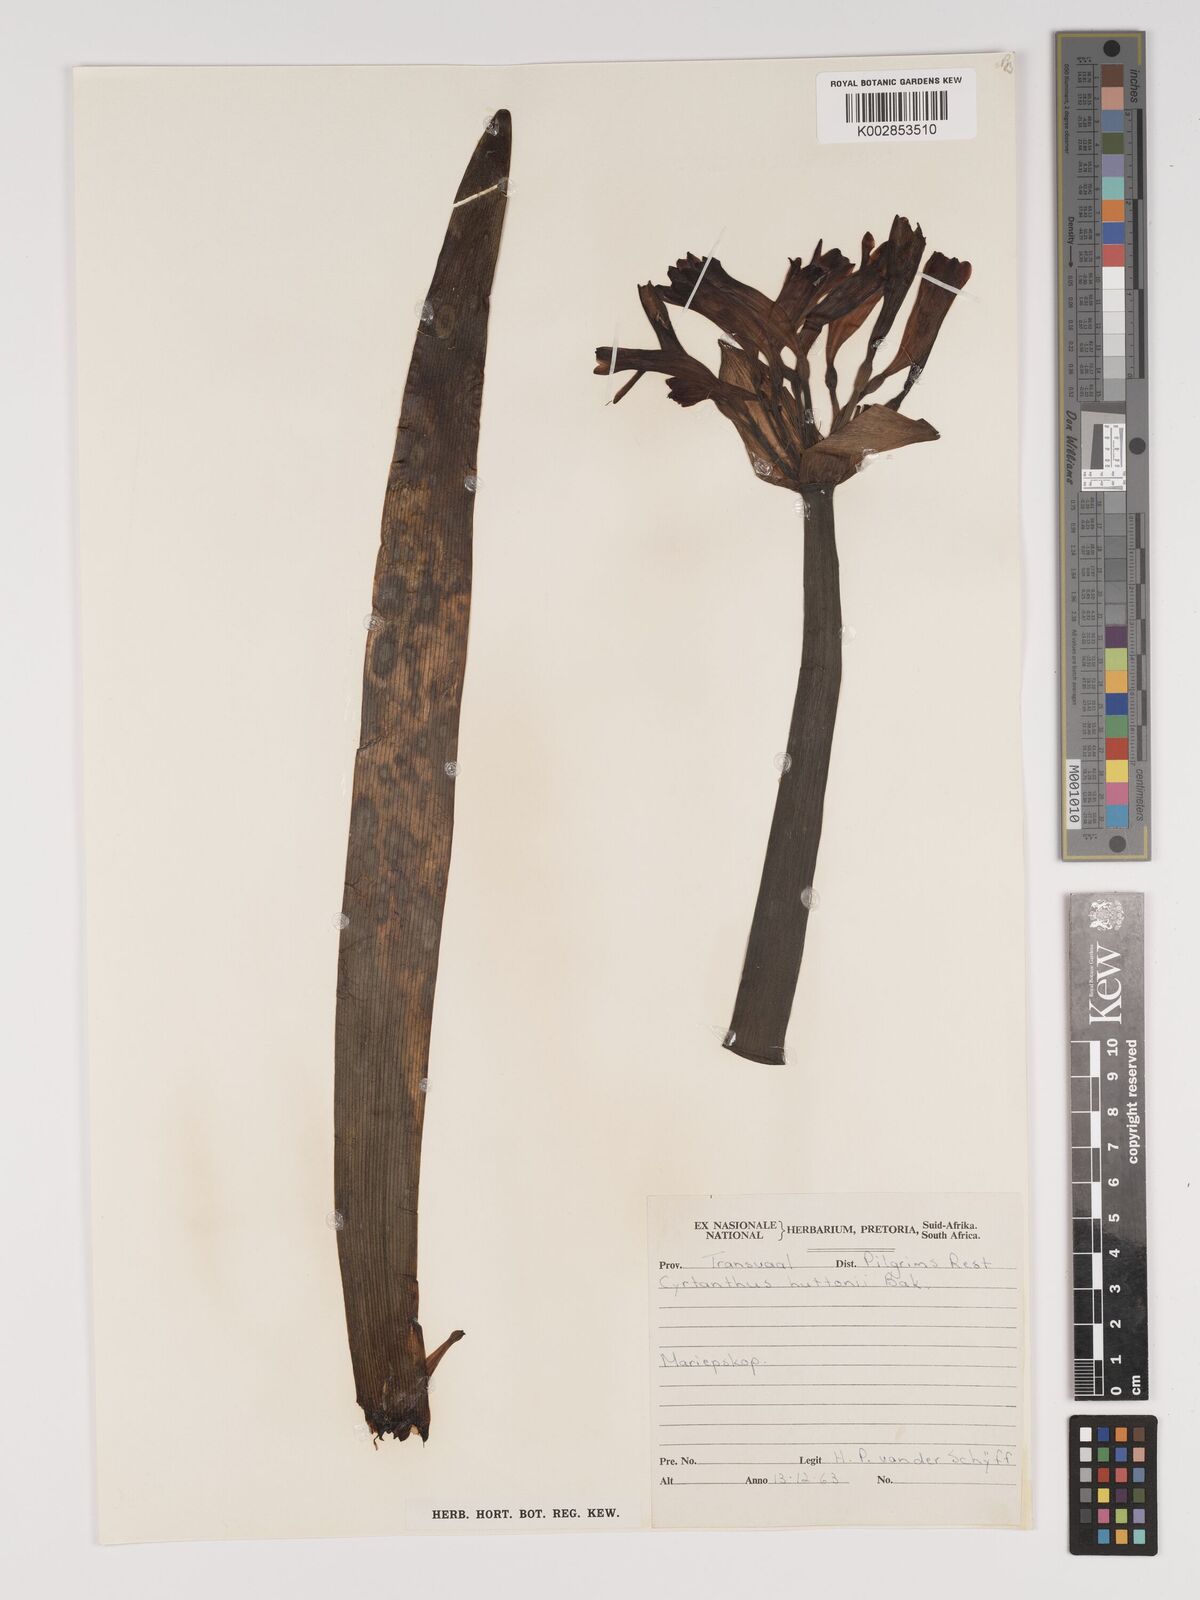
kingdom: Plantae
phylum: Tracheophyta
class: Liliopsida
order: Asparagales
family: Amaryllidaceae
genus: Cyrtanthus
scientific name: Cyrtanthus huttonii
